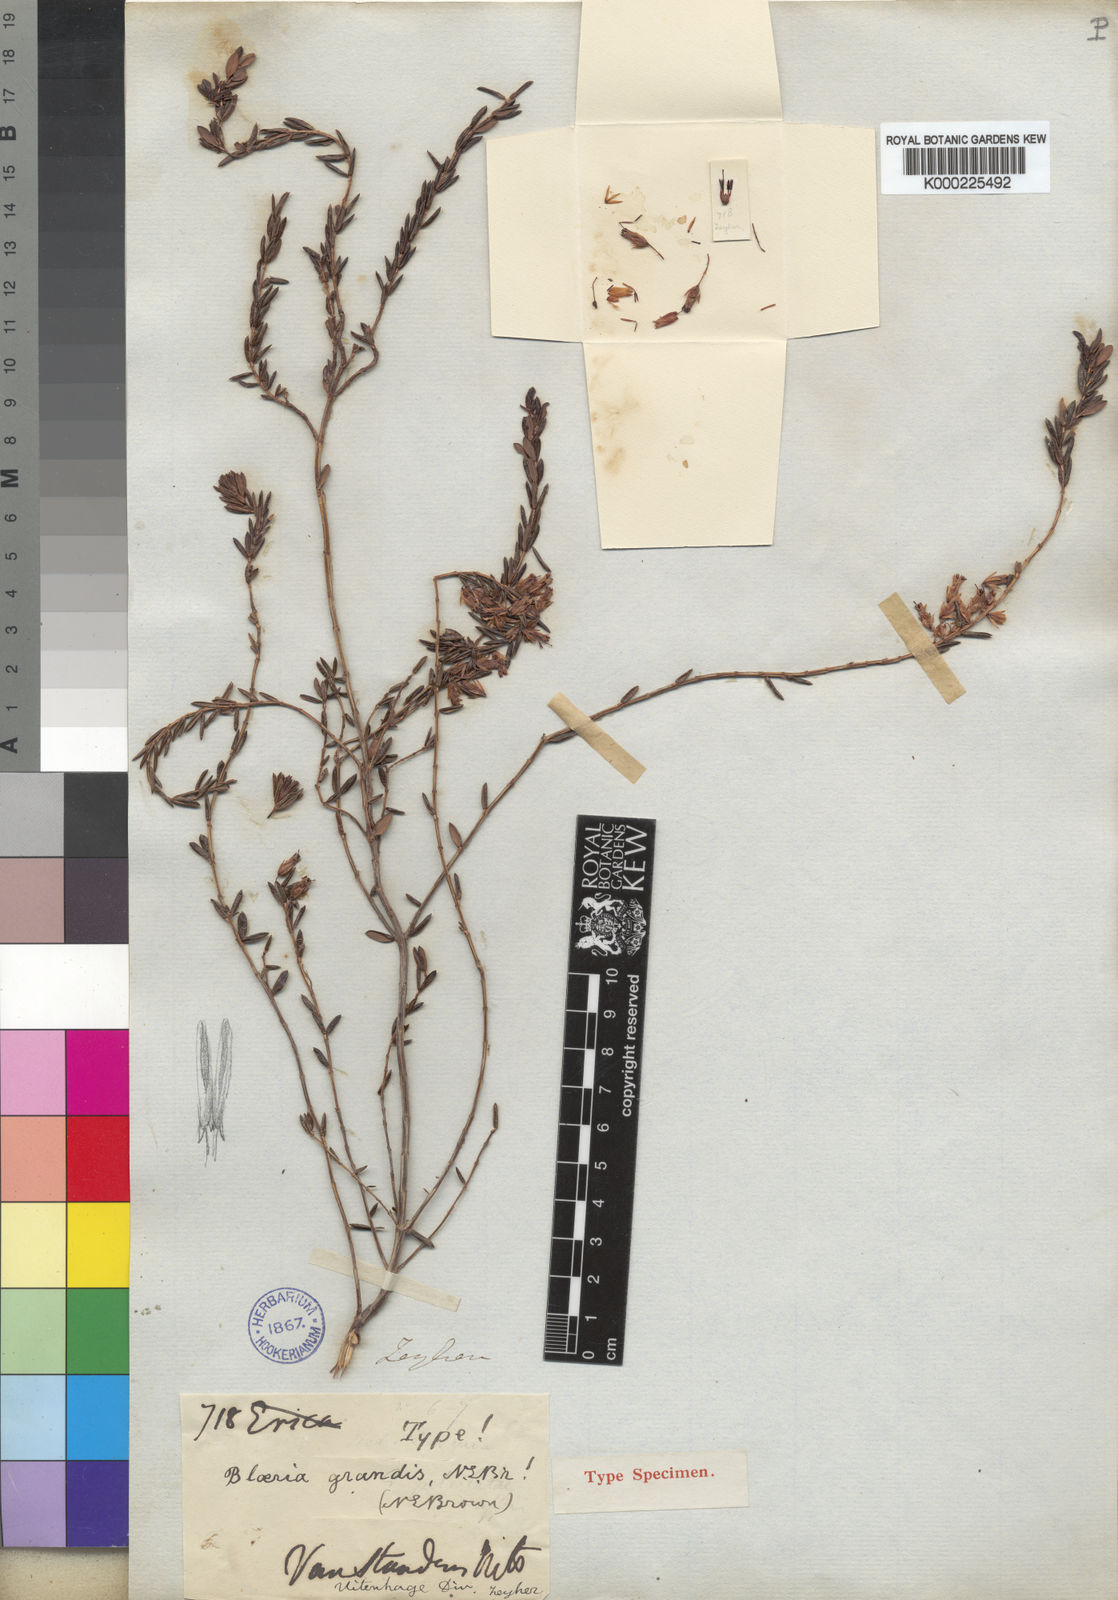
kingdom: Plantae
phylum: Tracheophyta
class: Magnoliopsida
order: Ericales
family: Ericaceae
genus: Erica
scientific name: Erica sagittata
